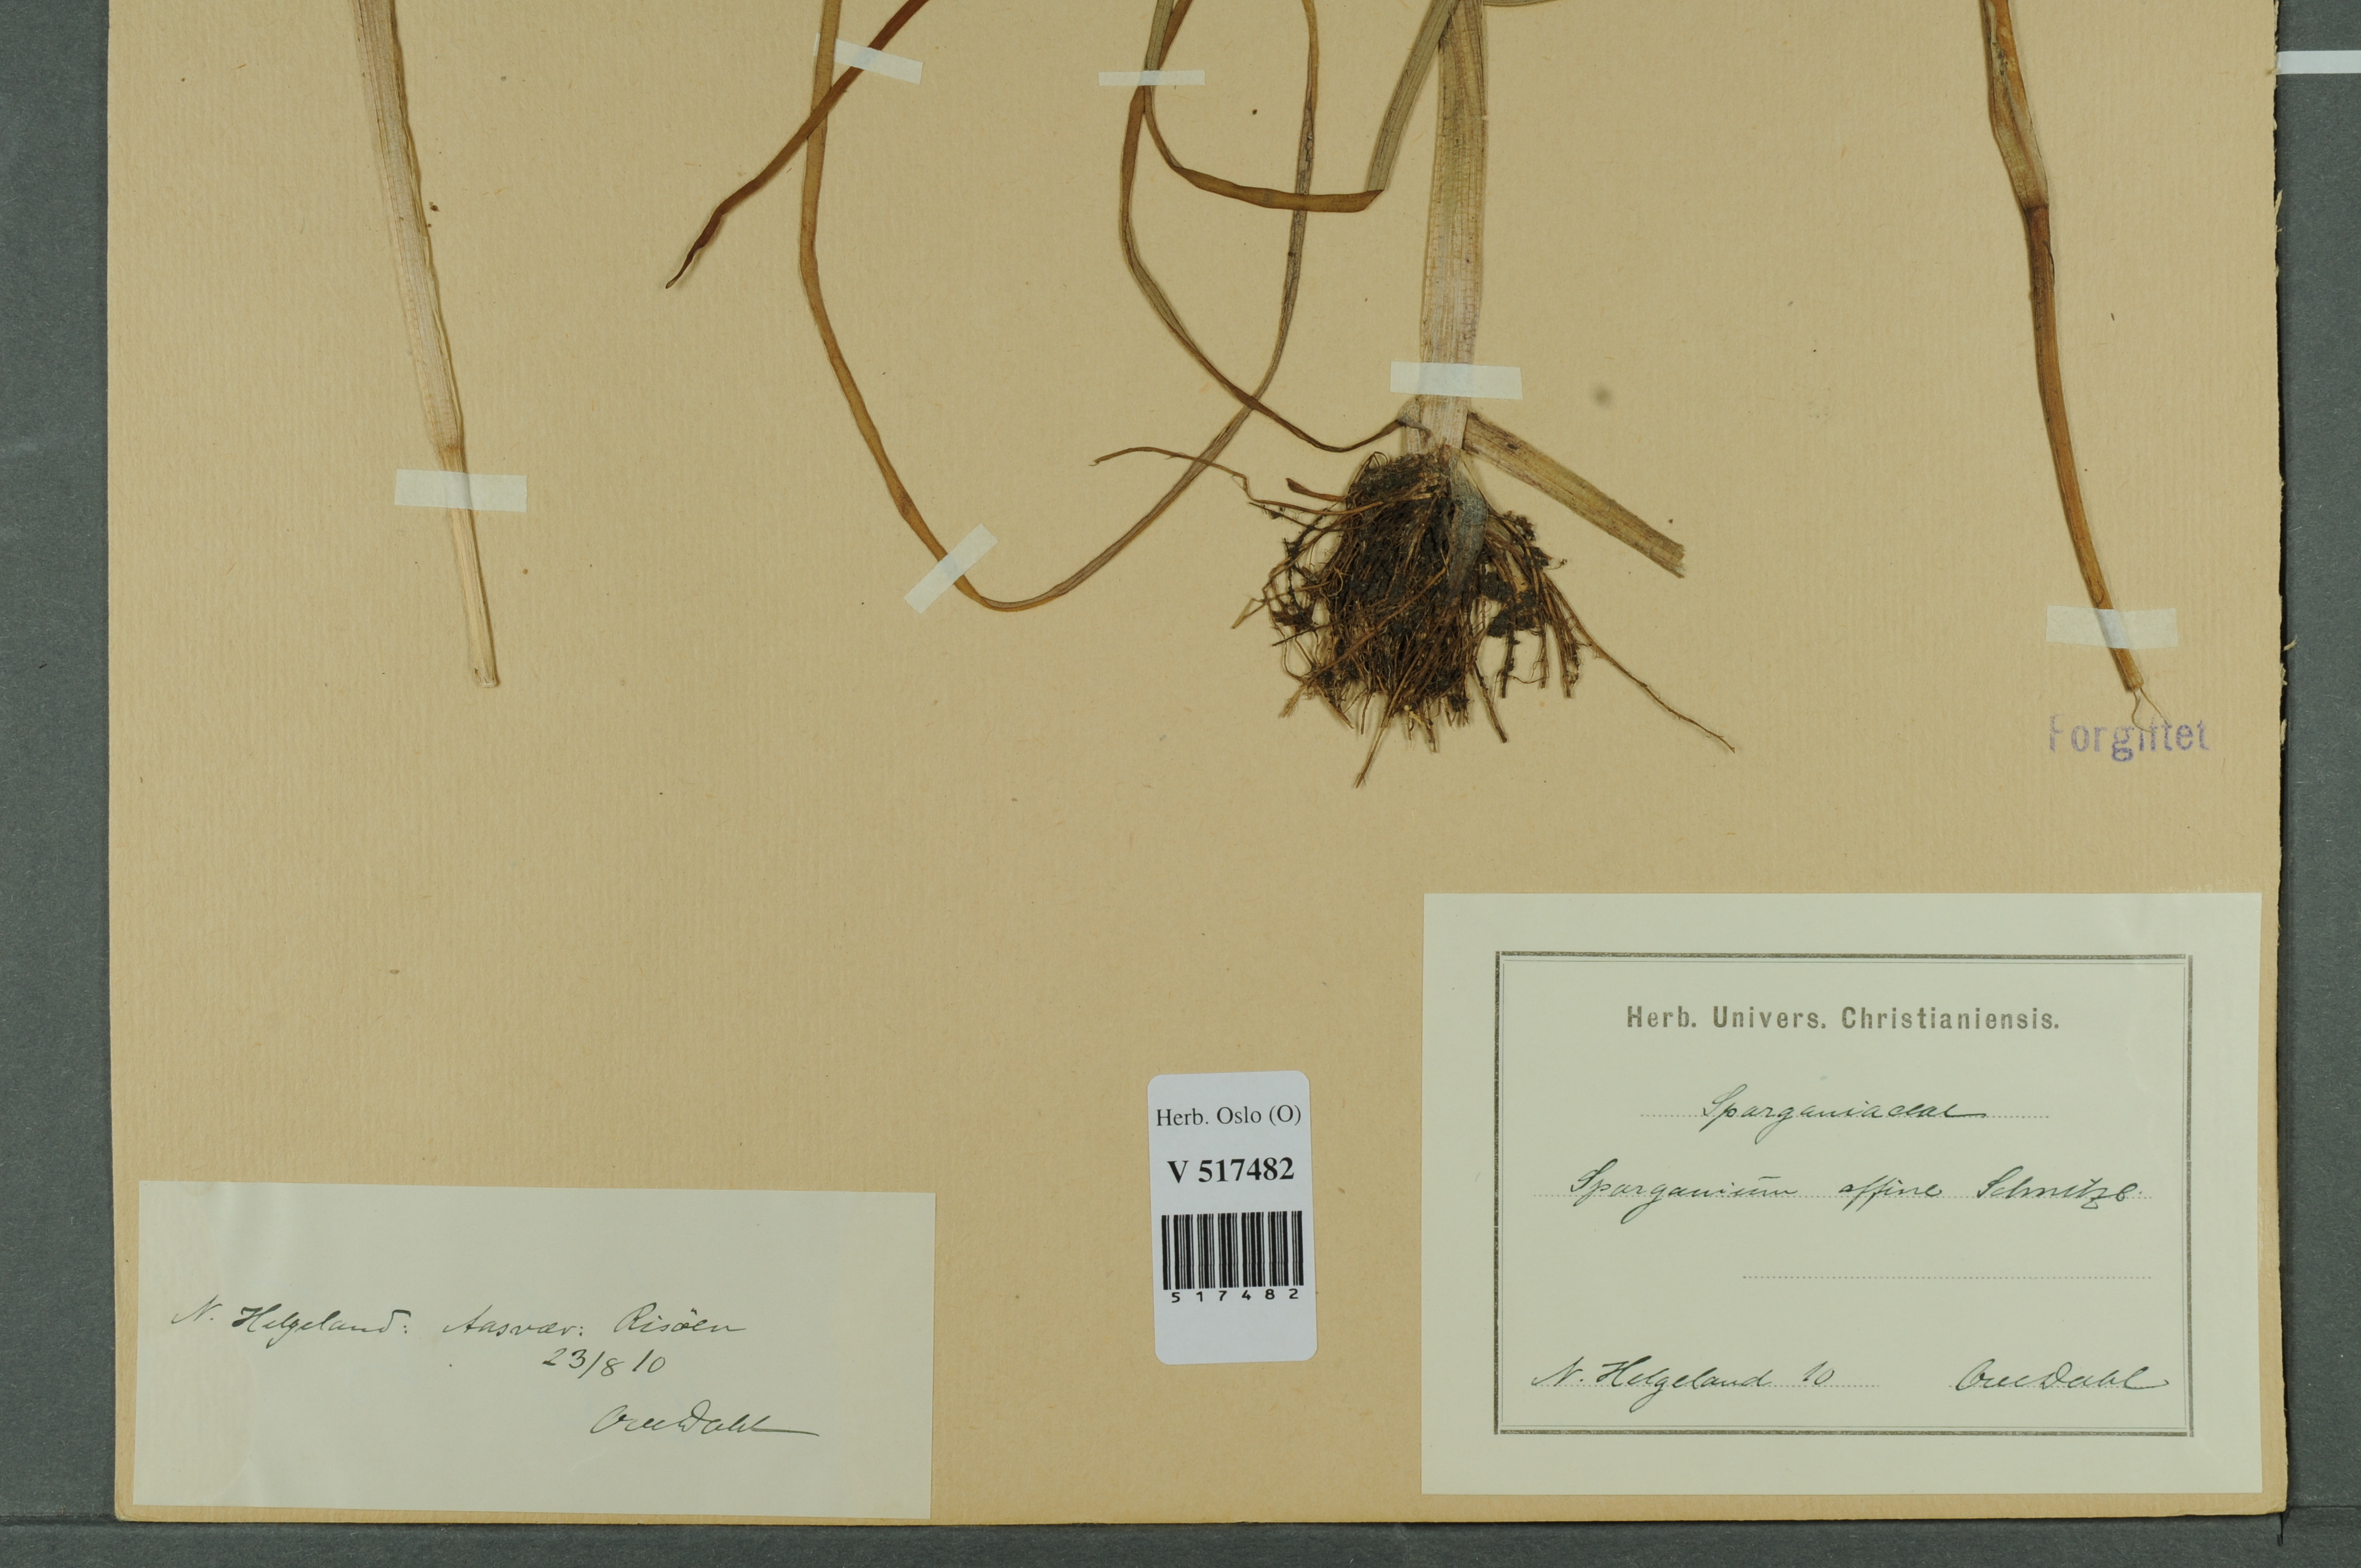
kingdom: Plantae
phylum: Tracheophyta
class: Liliopsida
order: Poales
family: Typhaceae
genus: Sparganium
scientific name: Sparganium angustifolium
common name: Floating bur-reed
